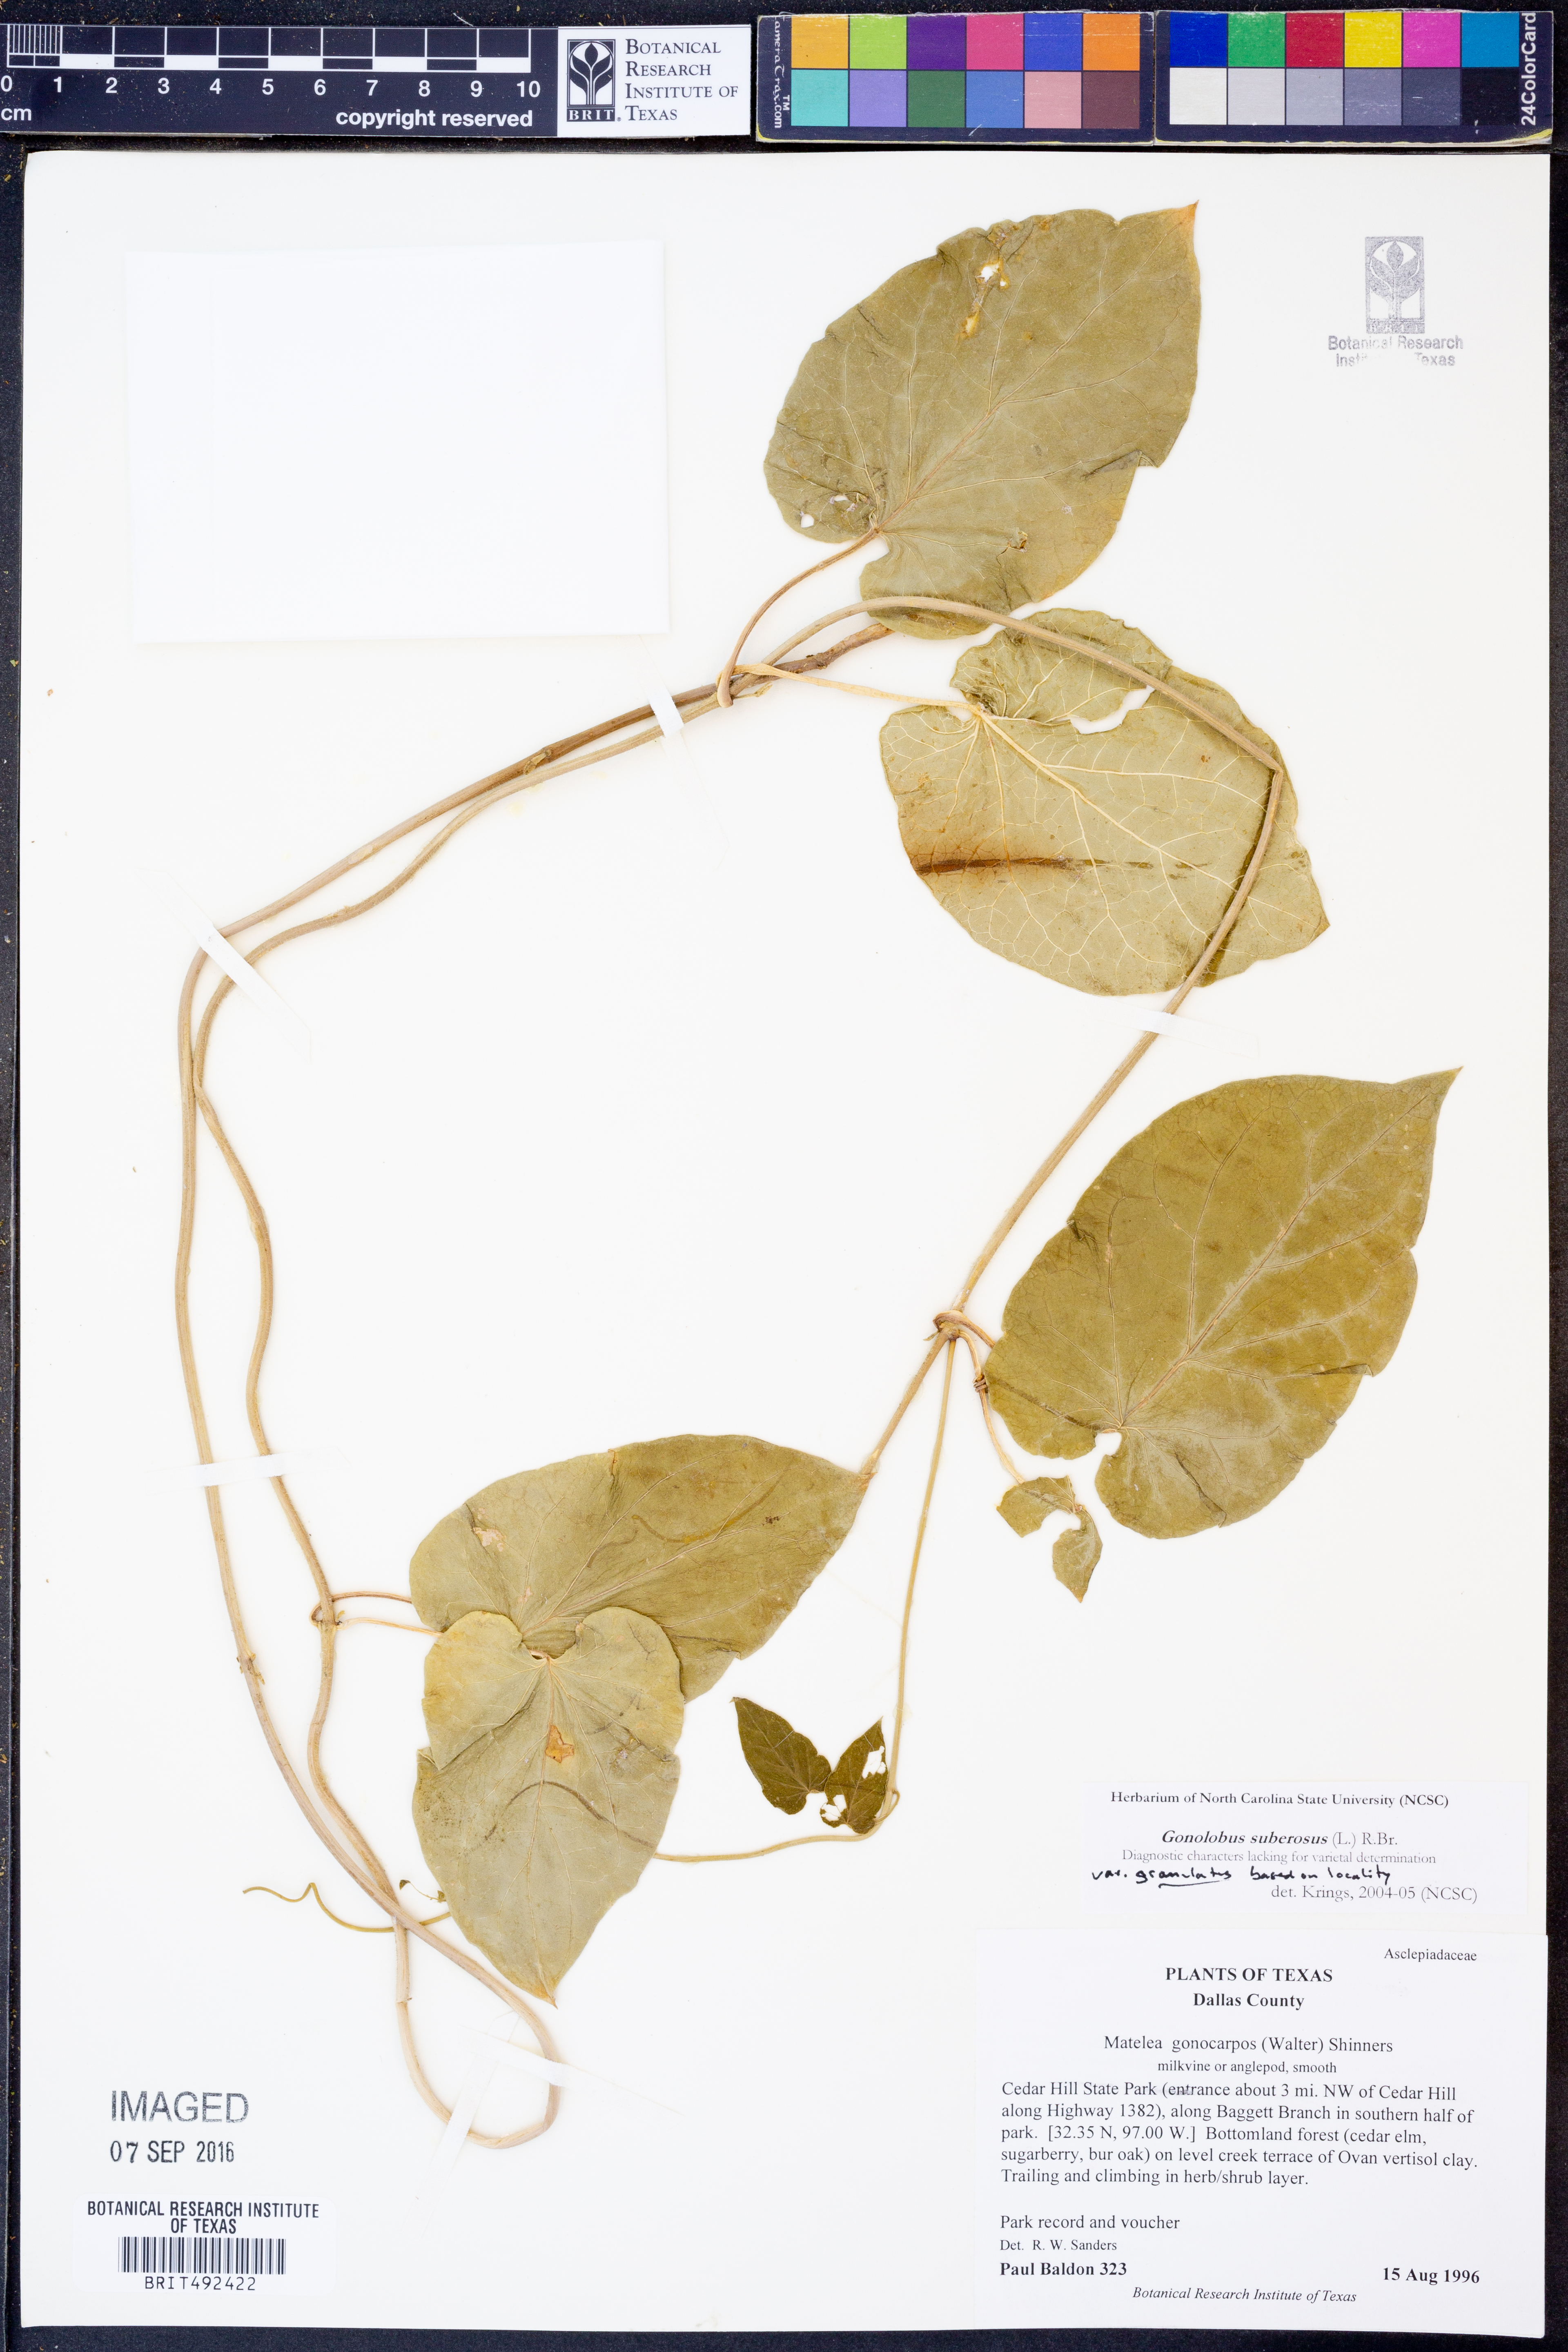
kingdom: Plantae
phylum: Tracheophyta
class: Magnoliopsida
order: Gentianales
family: Apocynaceae
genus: Gonolobus
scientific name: Gonolobus suberosus
